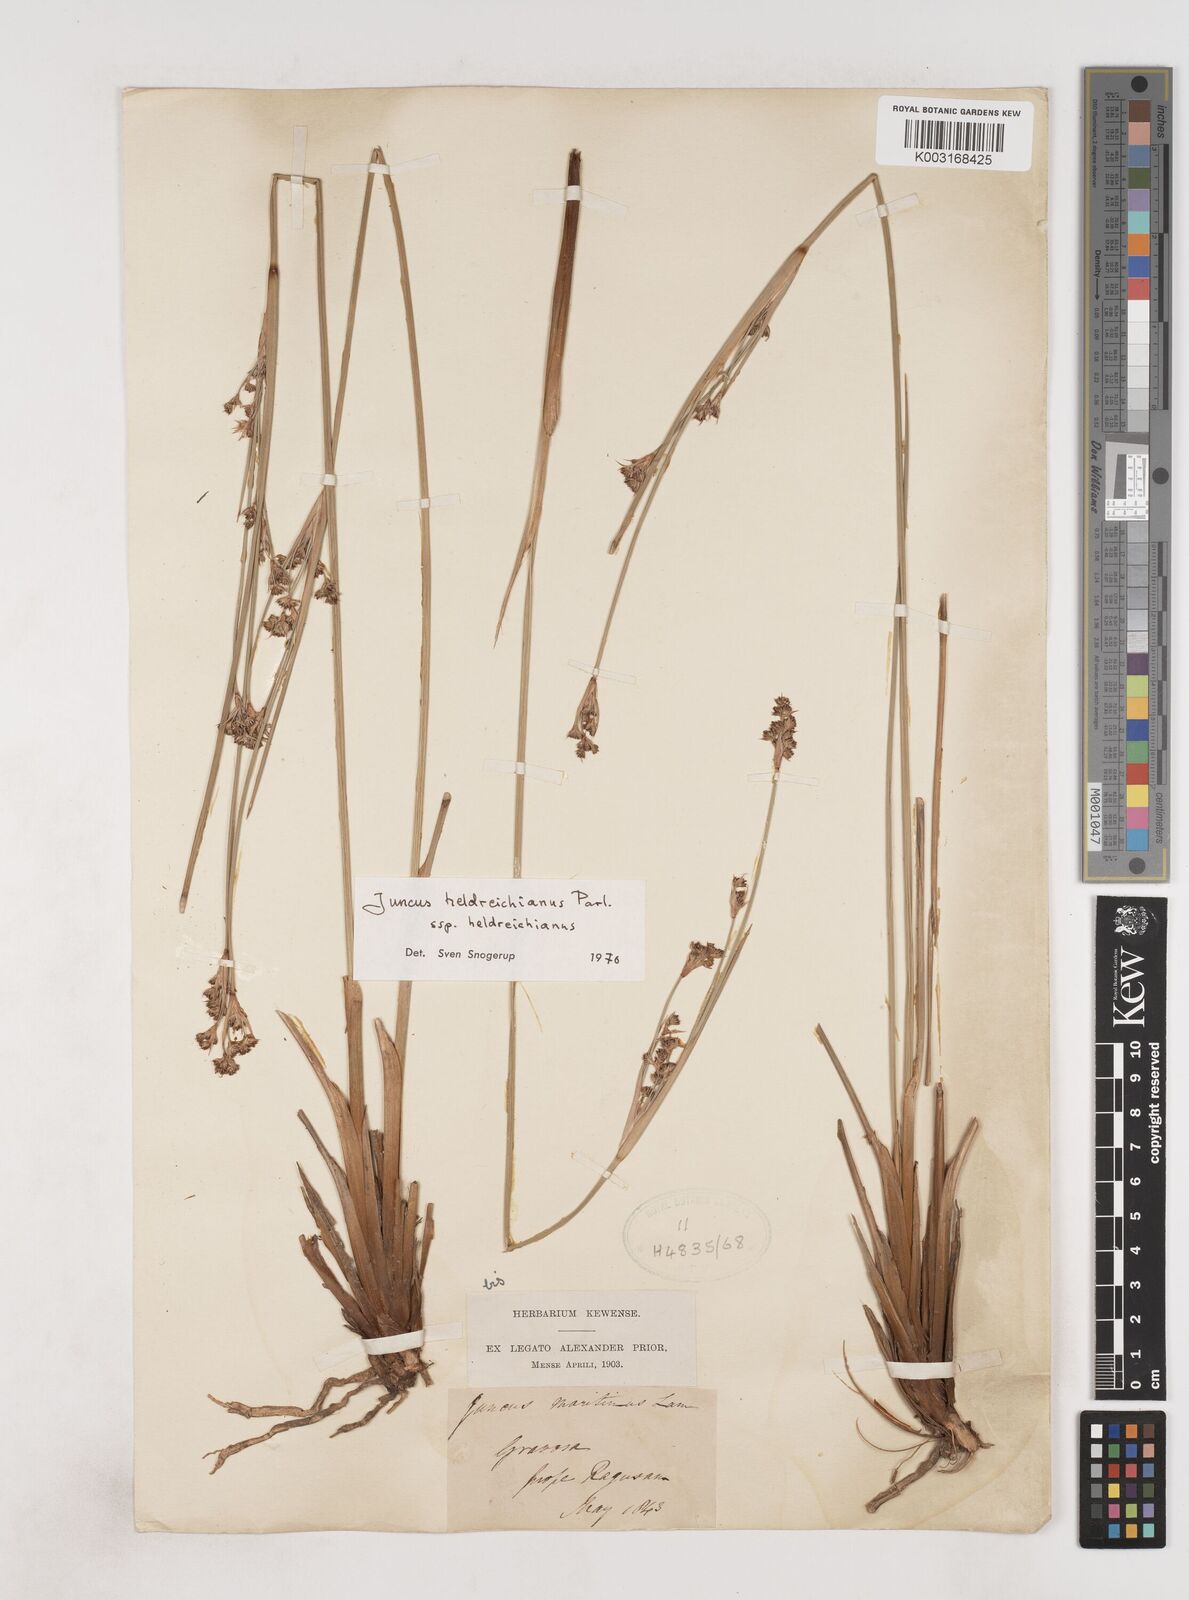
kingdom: Plantae
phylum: Tracheophyta
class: Liliopsida
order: Poales
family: Juncaceae
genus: Juncus
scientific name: Juncus heldreichianus
